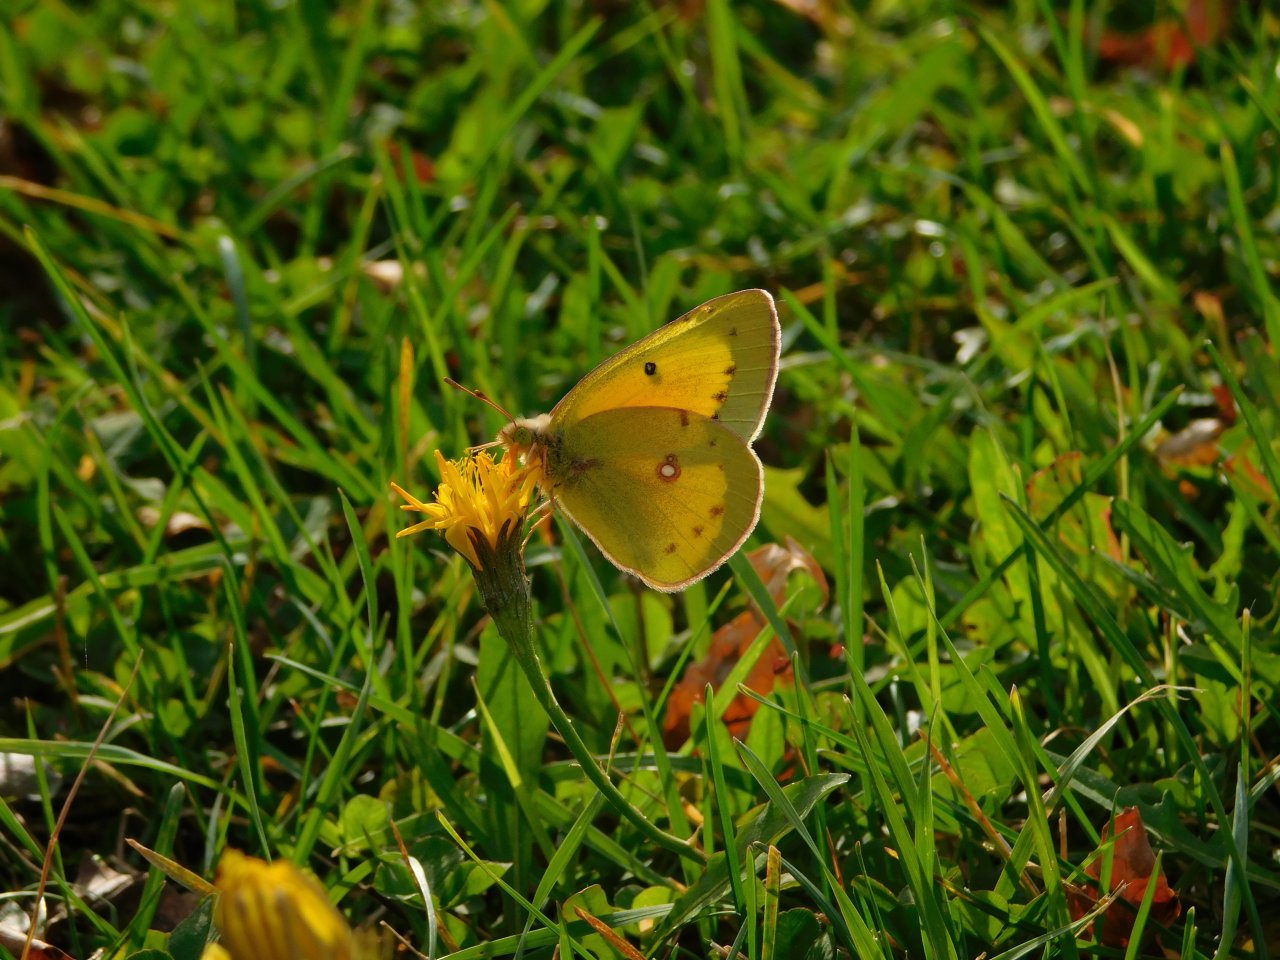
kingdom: Animalia
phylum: Arthropoda
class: Insecta
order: Lepidoptera
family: Pieridae
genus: Colias
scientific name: Colias eurytheme
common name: Orange Sulphur
